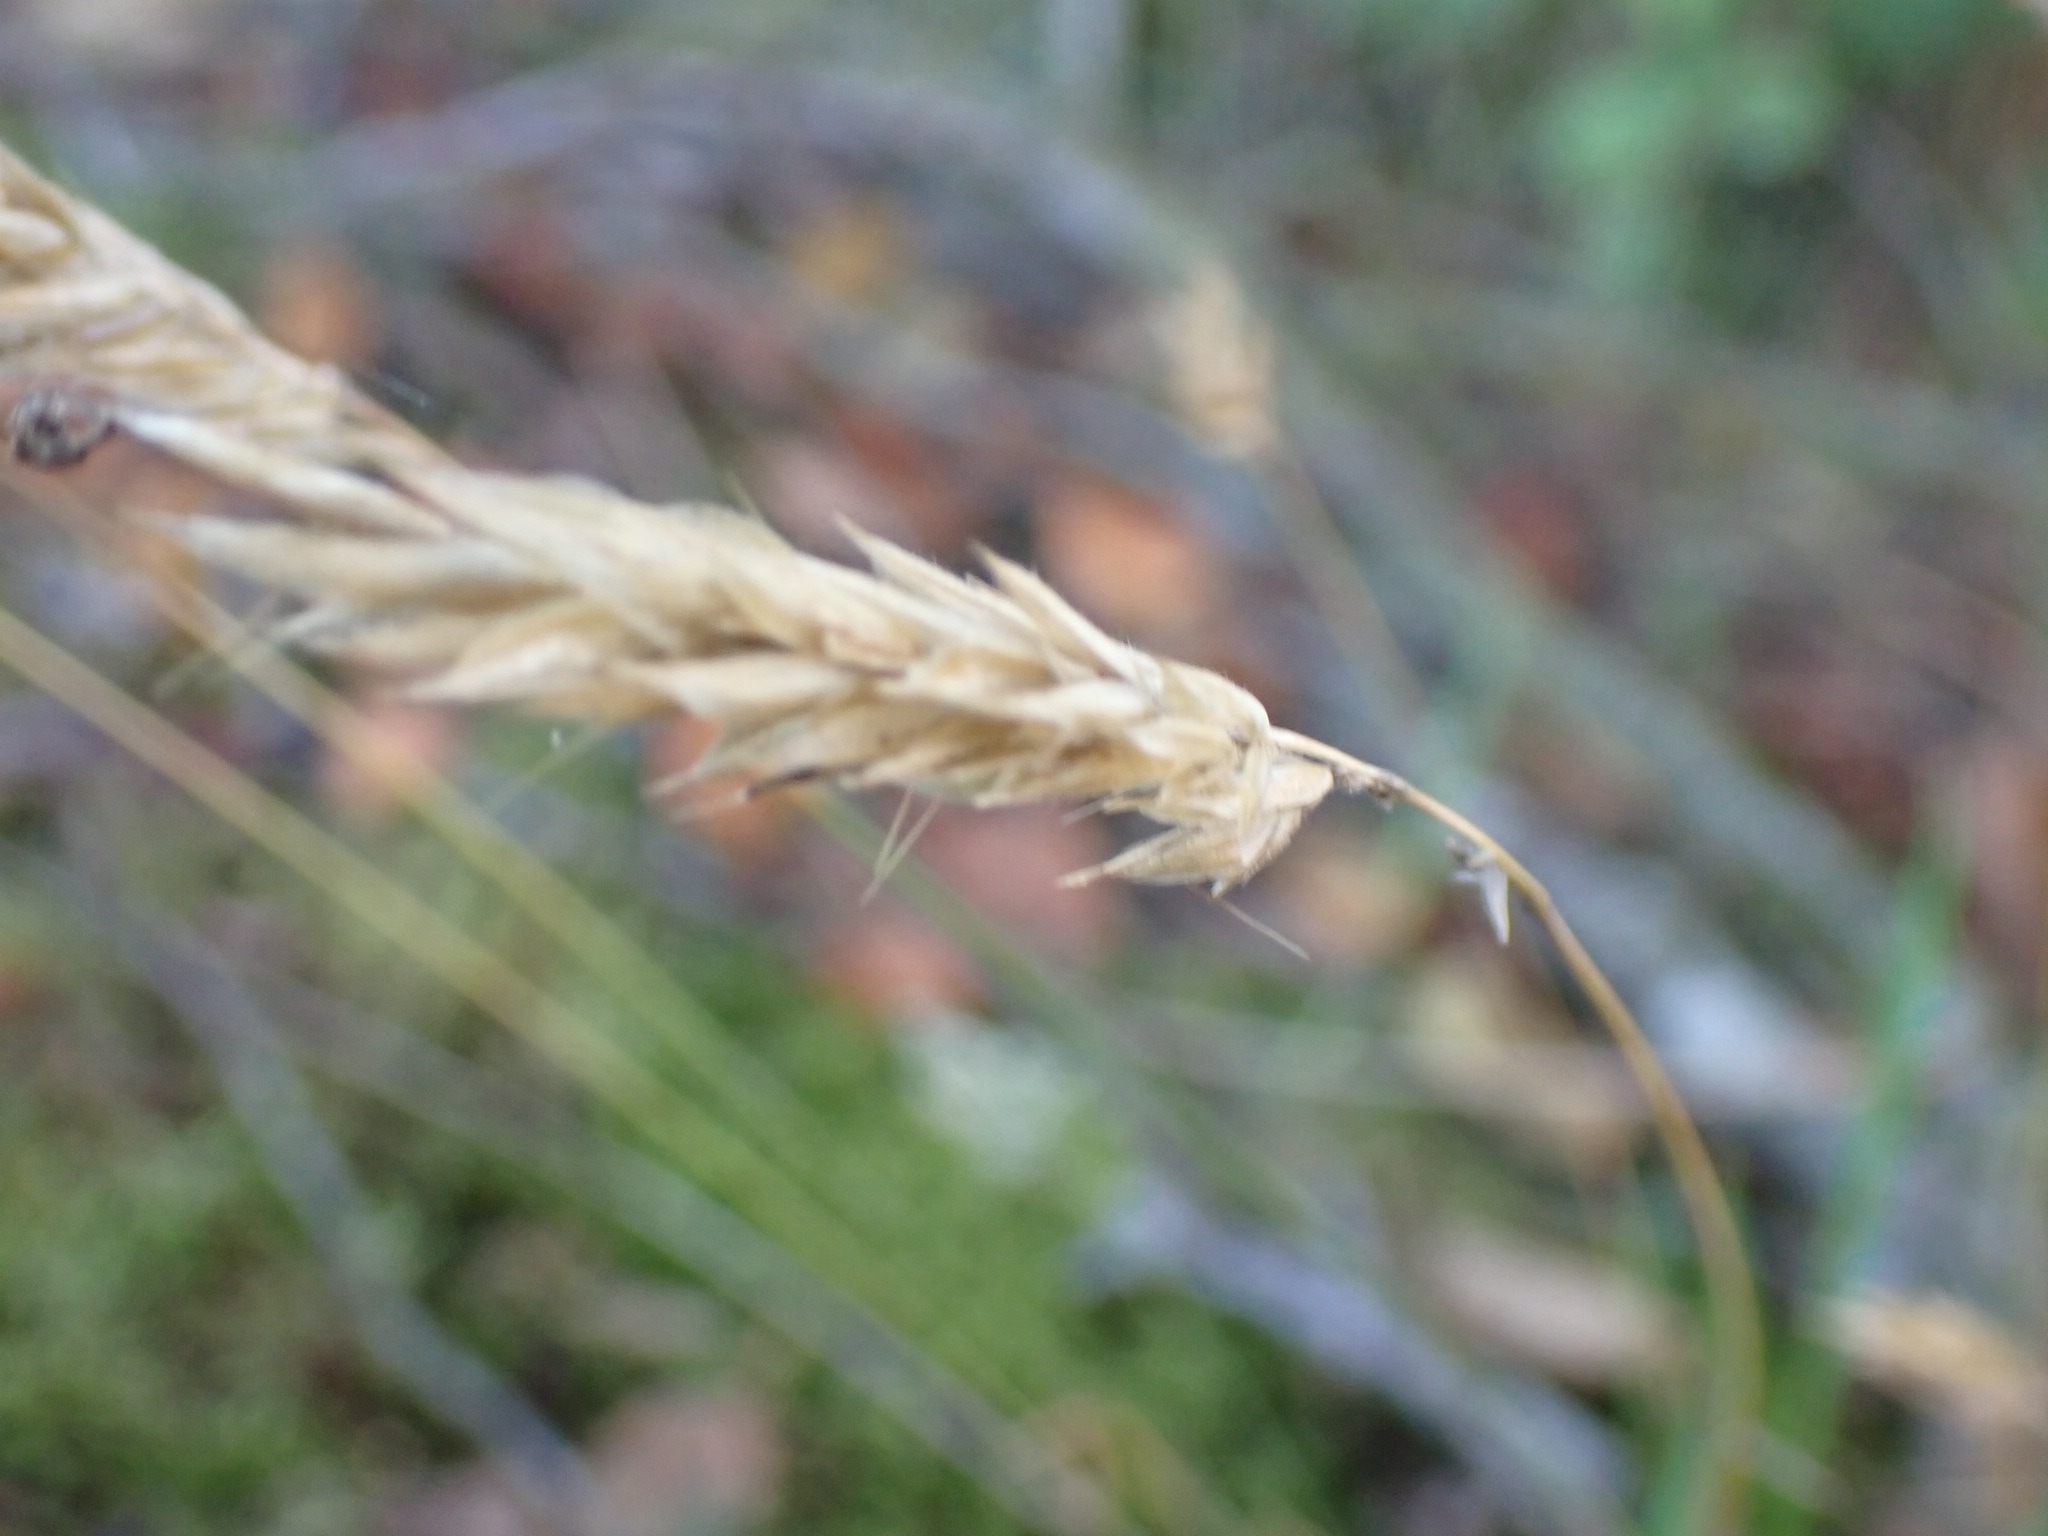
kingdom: Plantae
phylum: Tracheophyta
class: Liliopsida
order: Poales
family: Poaceae
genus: Anthoxanthum
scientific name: Anthoxanthum odoratum
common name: Vellugtende gulaks
